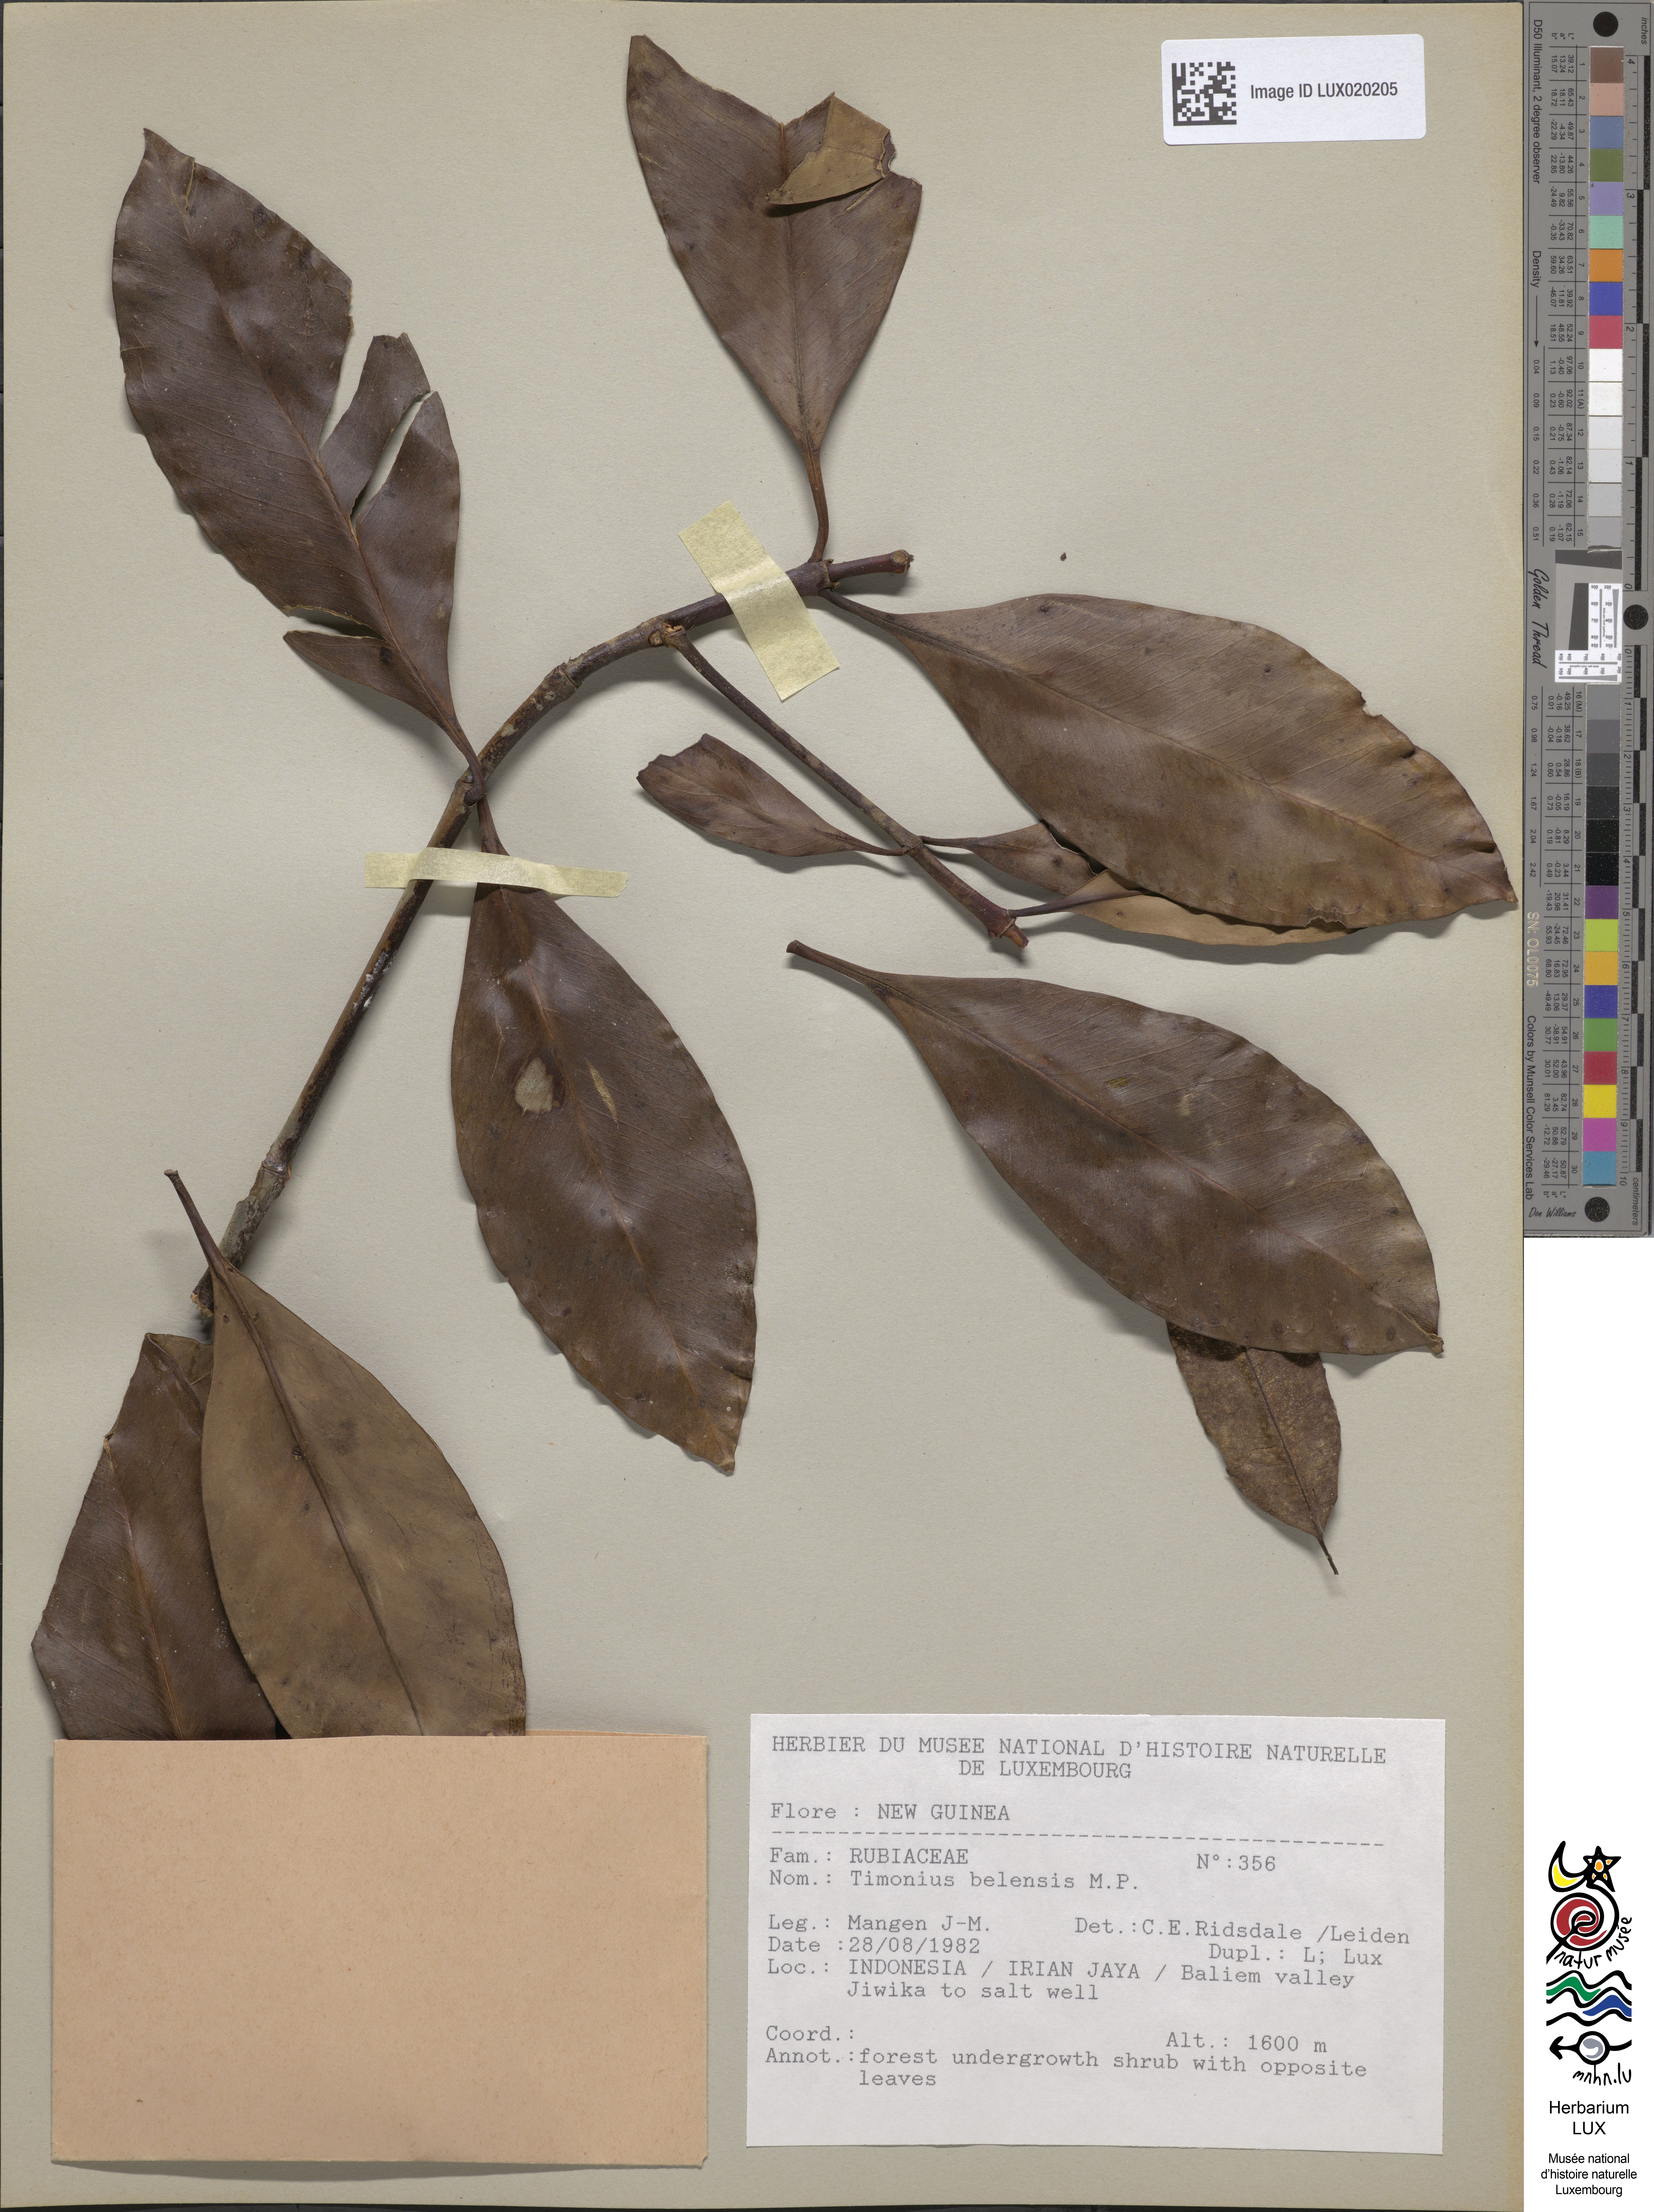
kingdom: Plantae
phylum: Tracheophyta
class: Magnoliopsida
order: Gentianales
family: Rubiaceae
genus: Timonius
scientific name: Timonius belensis
